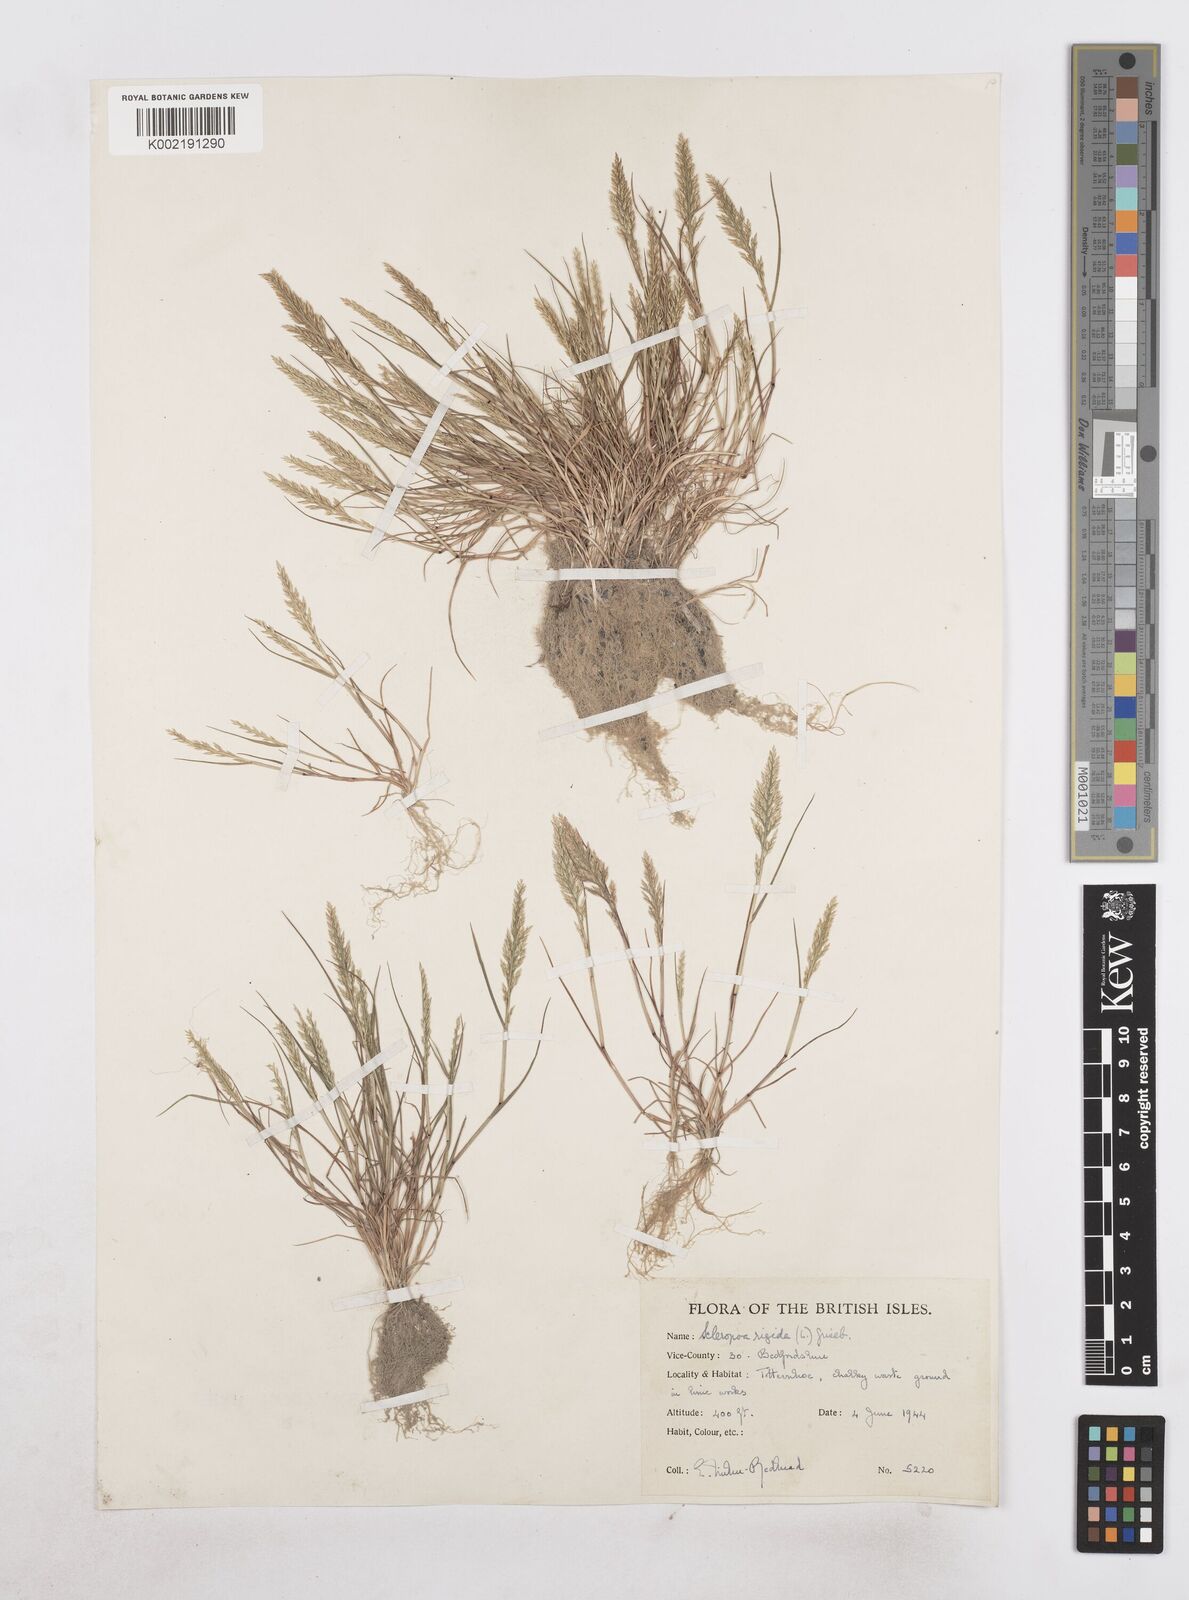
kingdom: Plantae
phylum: Tracheophyta
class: Liliopsida
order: Poales
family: Poaceae
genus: Catapodium
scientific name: Catapodium rigidum
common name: Fern-grass
